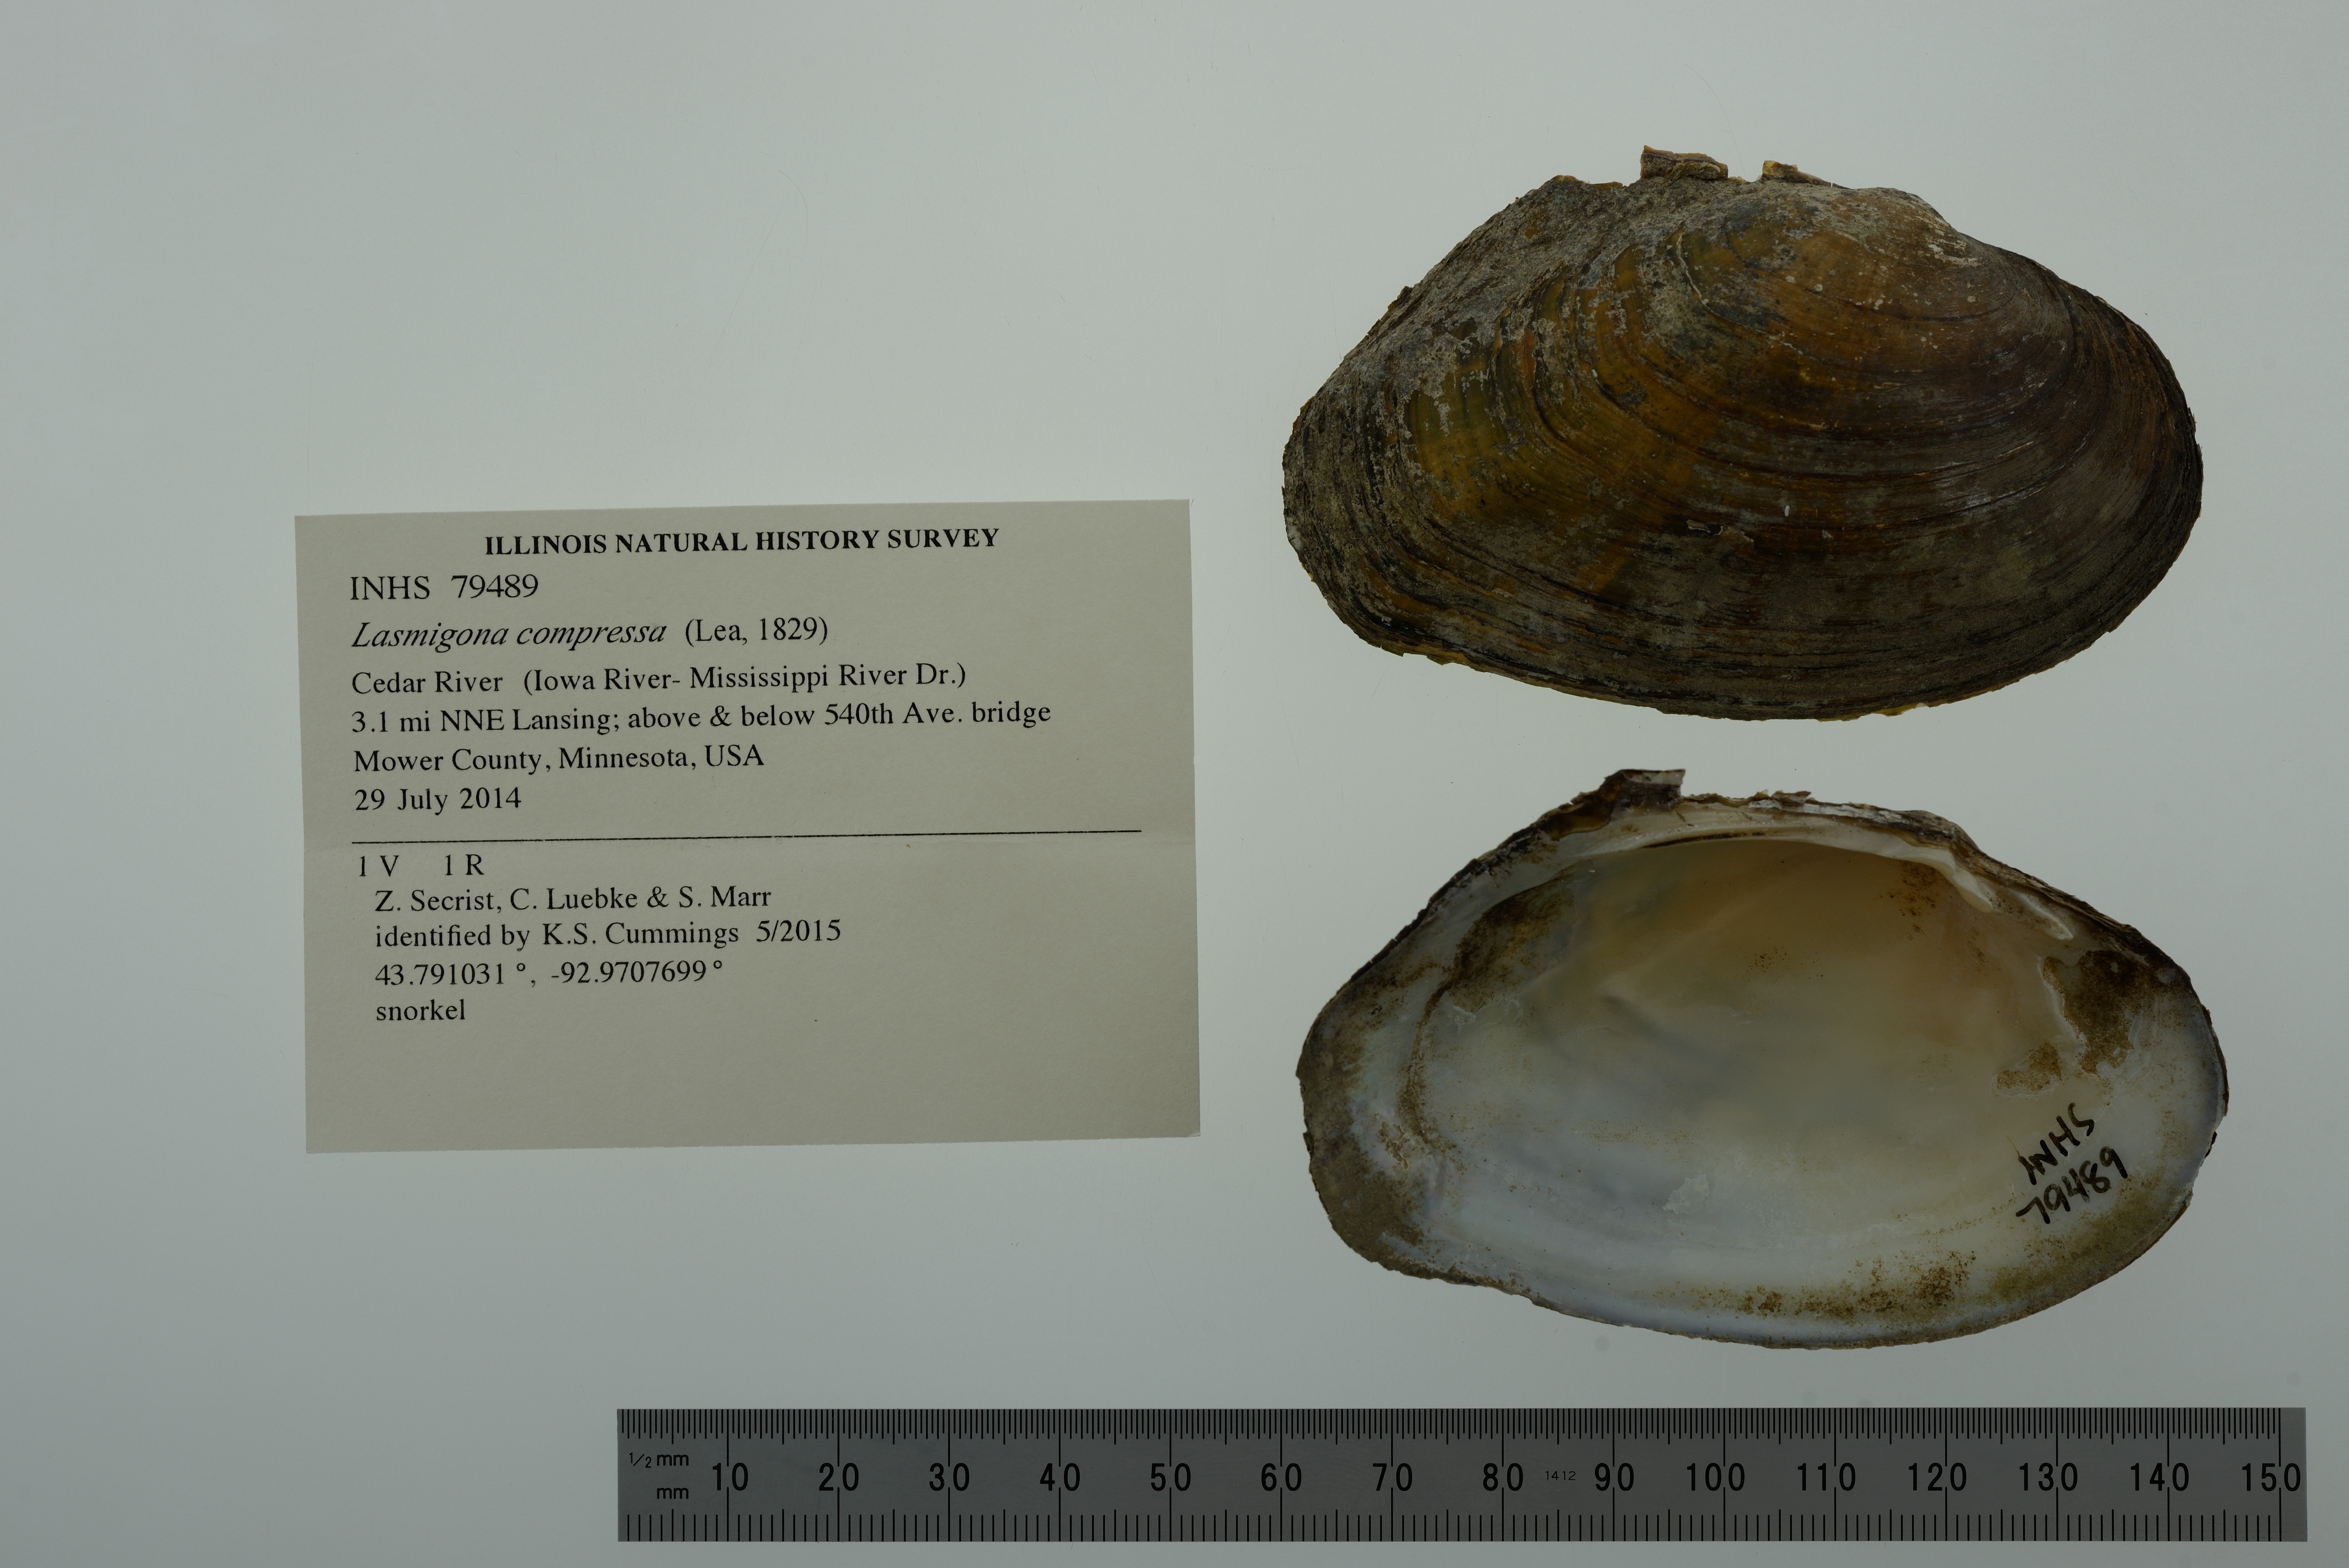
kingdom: Animalia
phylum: Mollusca
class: Bivalvia
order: Unionida
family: Unionidae
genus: Lasmigona
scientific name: Lasmigona compressa
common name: Creek heelsplitter
